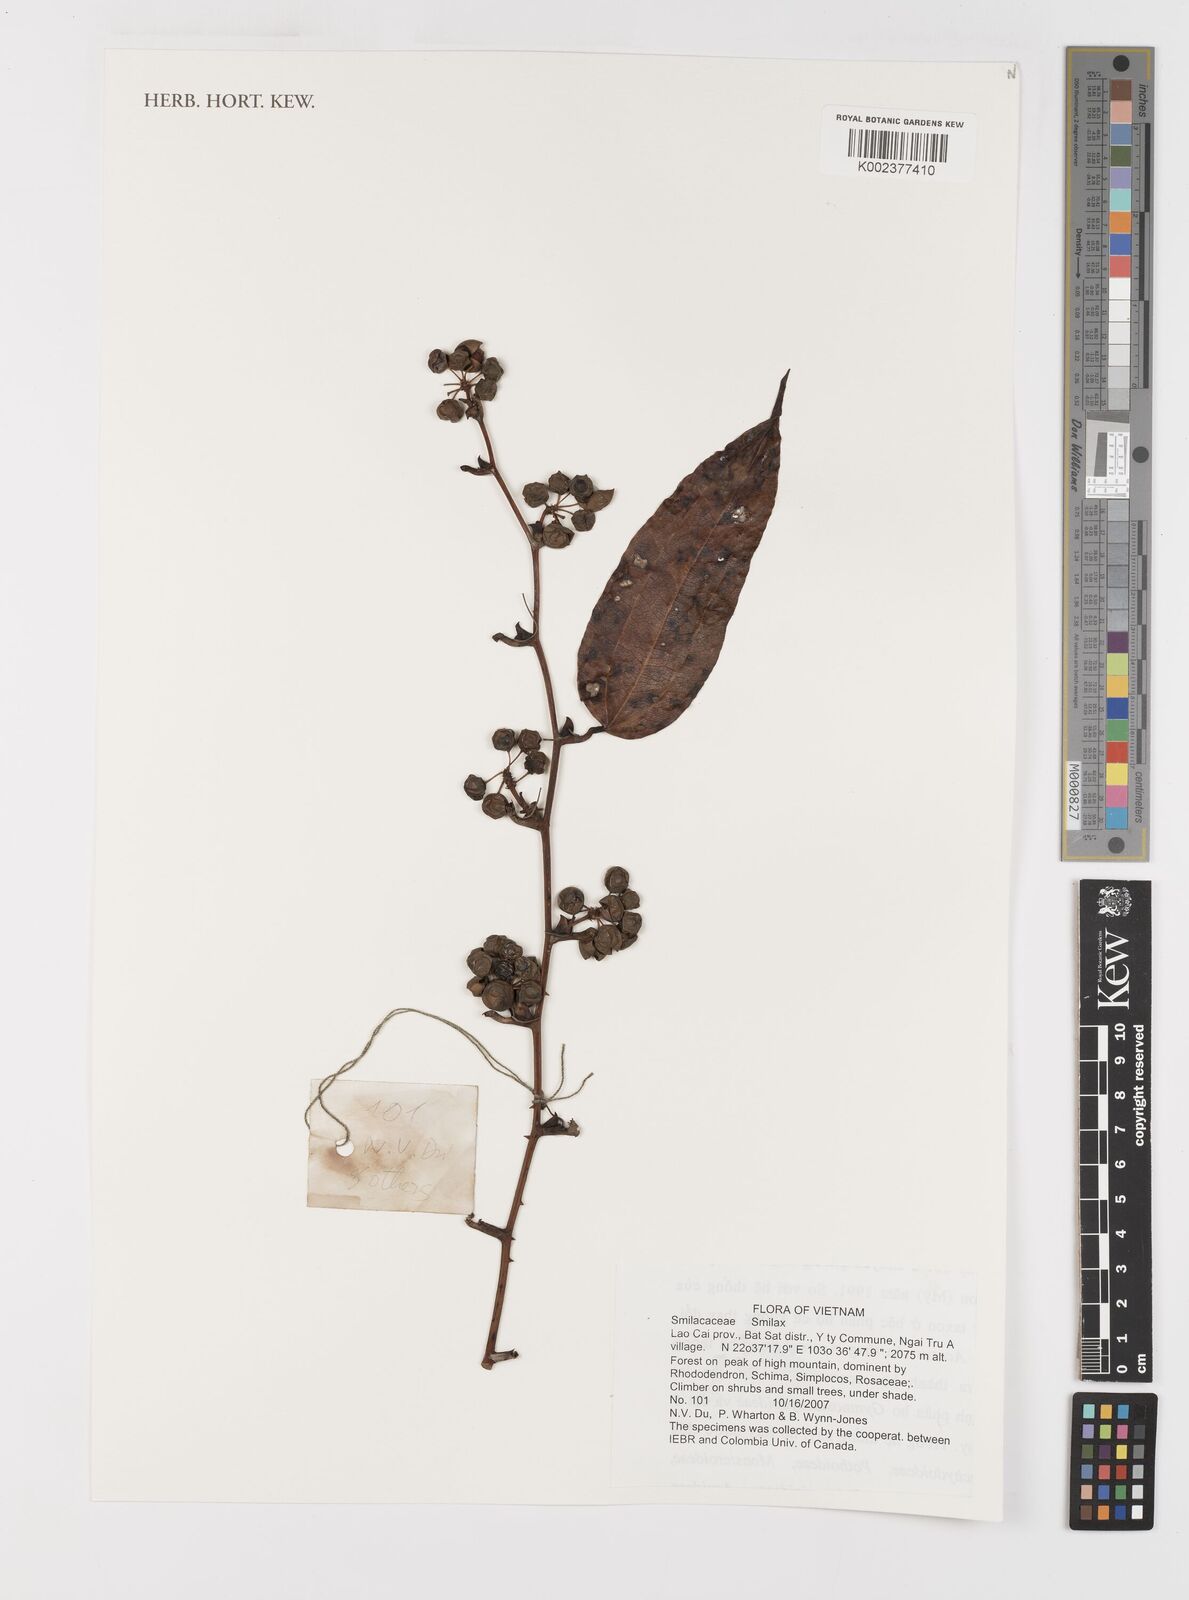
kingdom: Plantae
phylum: Tracheophyta
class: Liliopsida
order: Liliales
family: Smilacaceae
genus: Smilax
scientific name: Smilax
